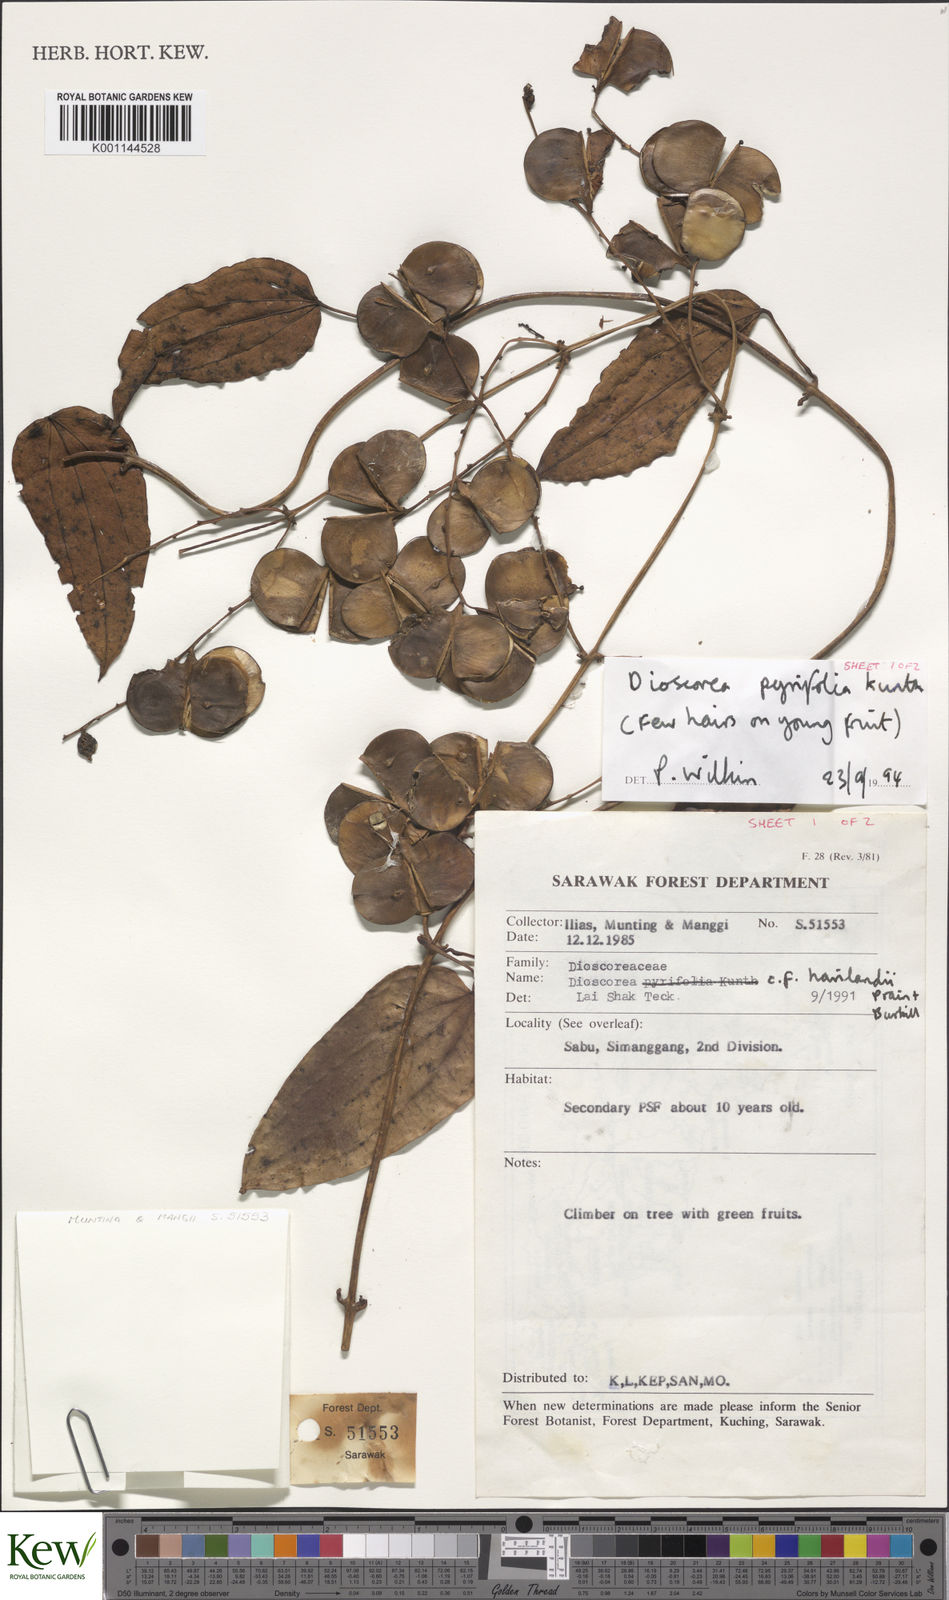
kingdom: Plantae
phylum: Tracheophyta
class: Liliopsida
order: Dioscoreales
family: Dioscoreaceae
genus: Dioscorea
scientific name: Dioscorea pyrifolia
